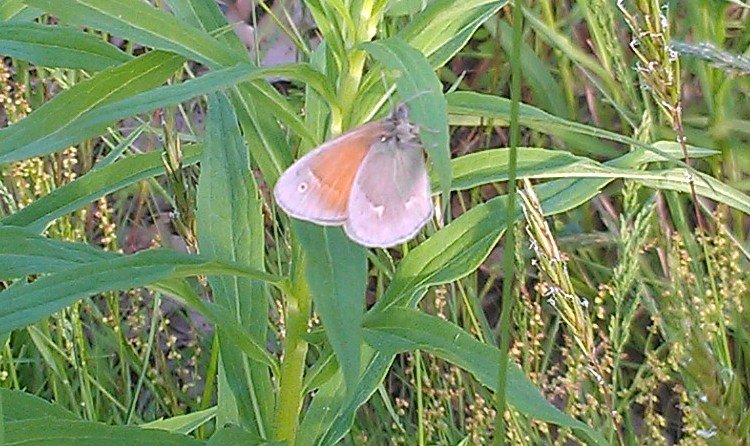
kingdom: Animalia
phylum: Arthropoda
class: Insecta
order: Lepidoptera
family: Nymphalidae
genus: Coenonympha
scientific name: Coenonympha tullia
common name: Large Heath
